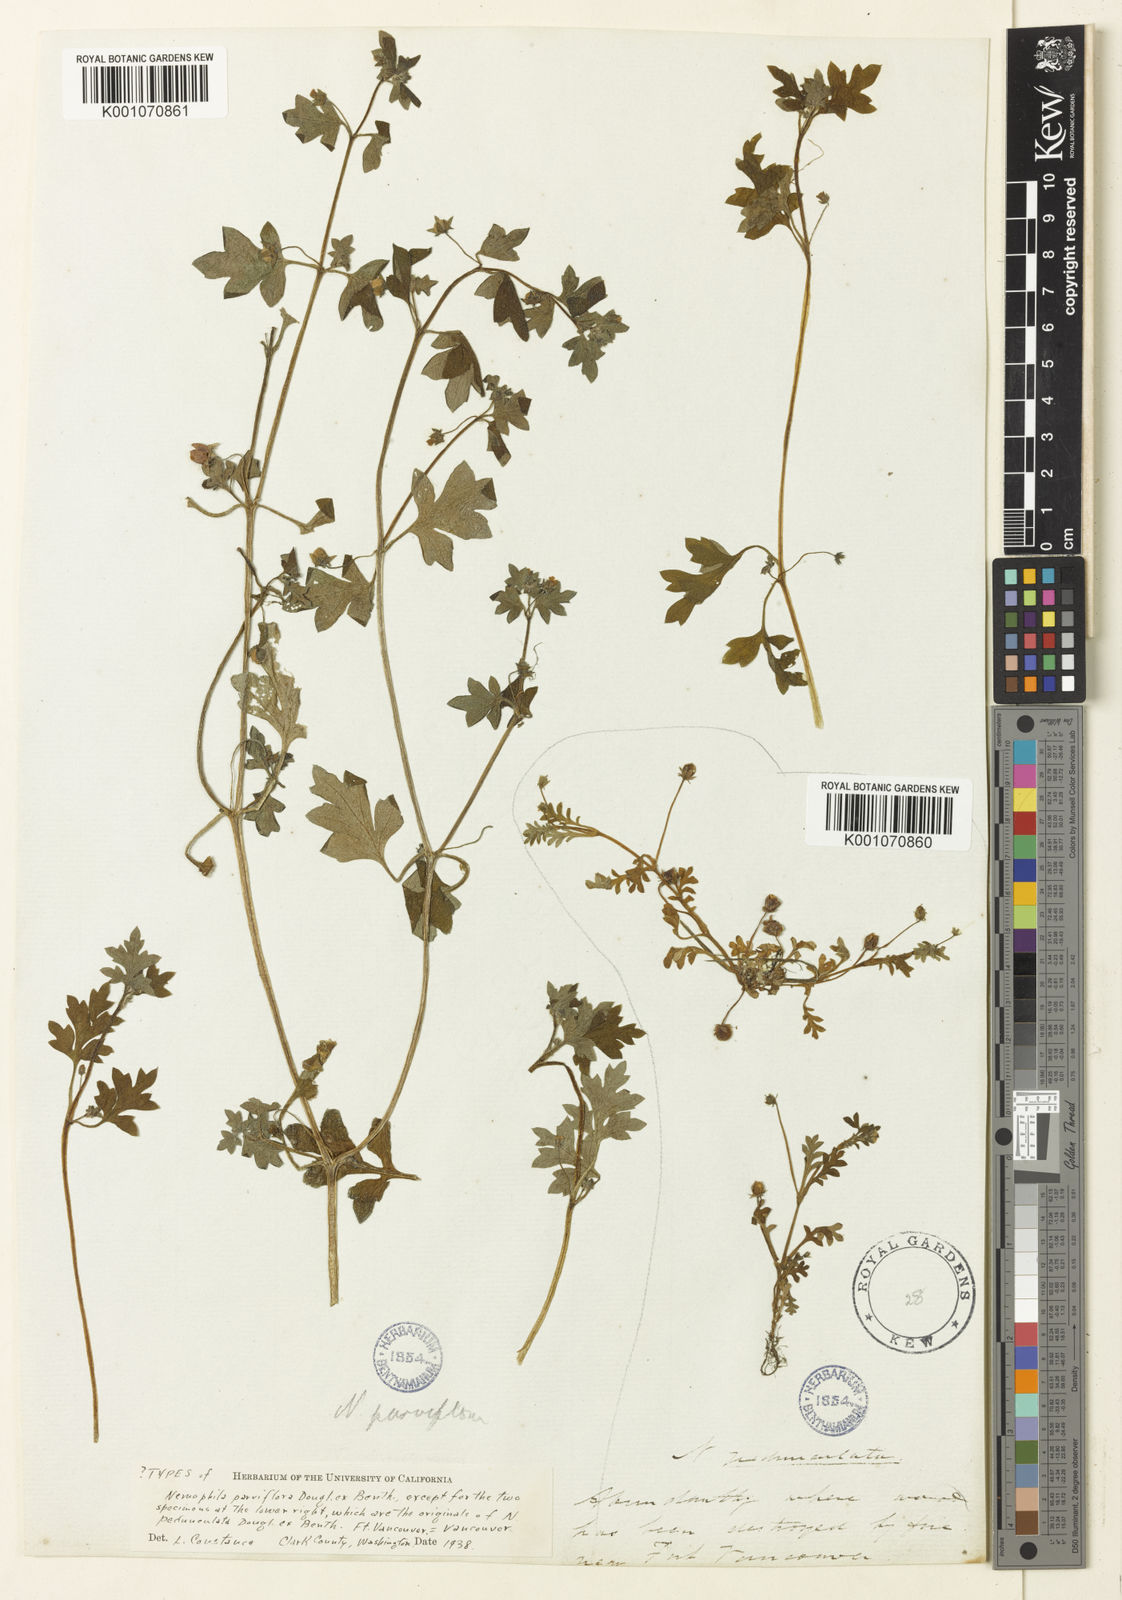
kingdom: Plantae
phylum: Tracheophyta
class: Magnoliopsida
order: Boraginales
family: Hydrophyllaceae
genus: Nemophila
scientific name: Nemophila
